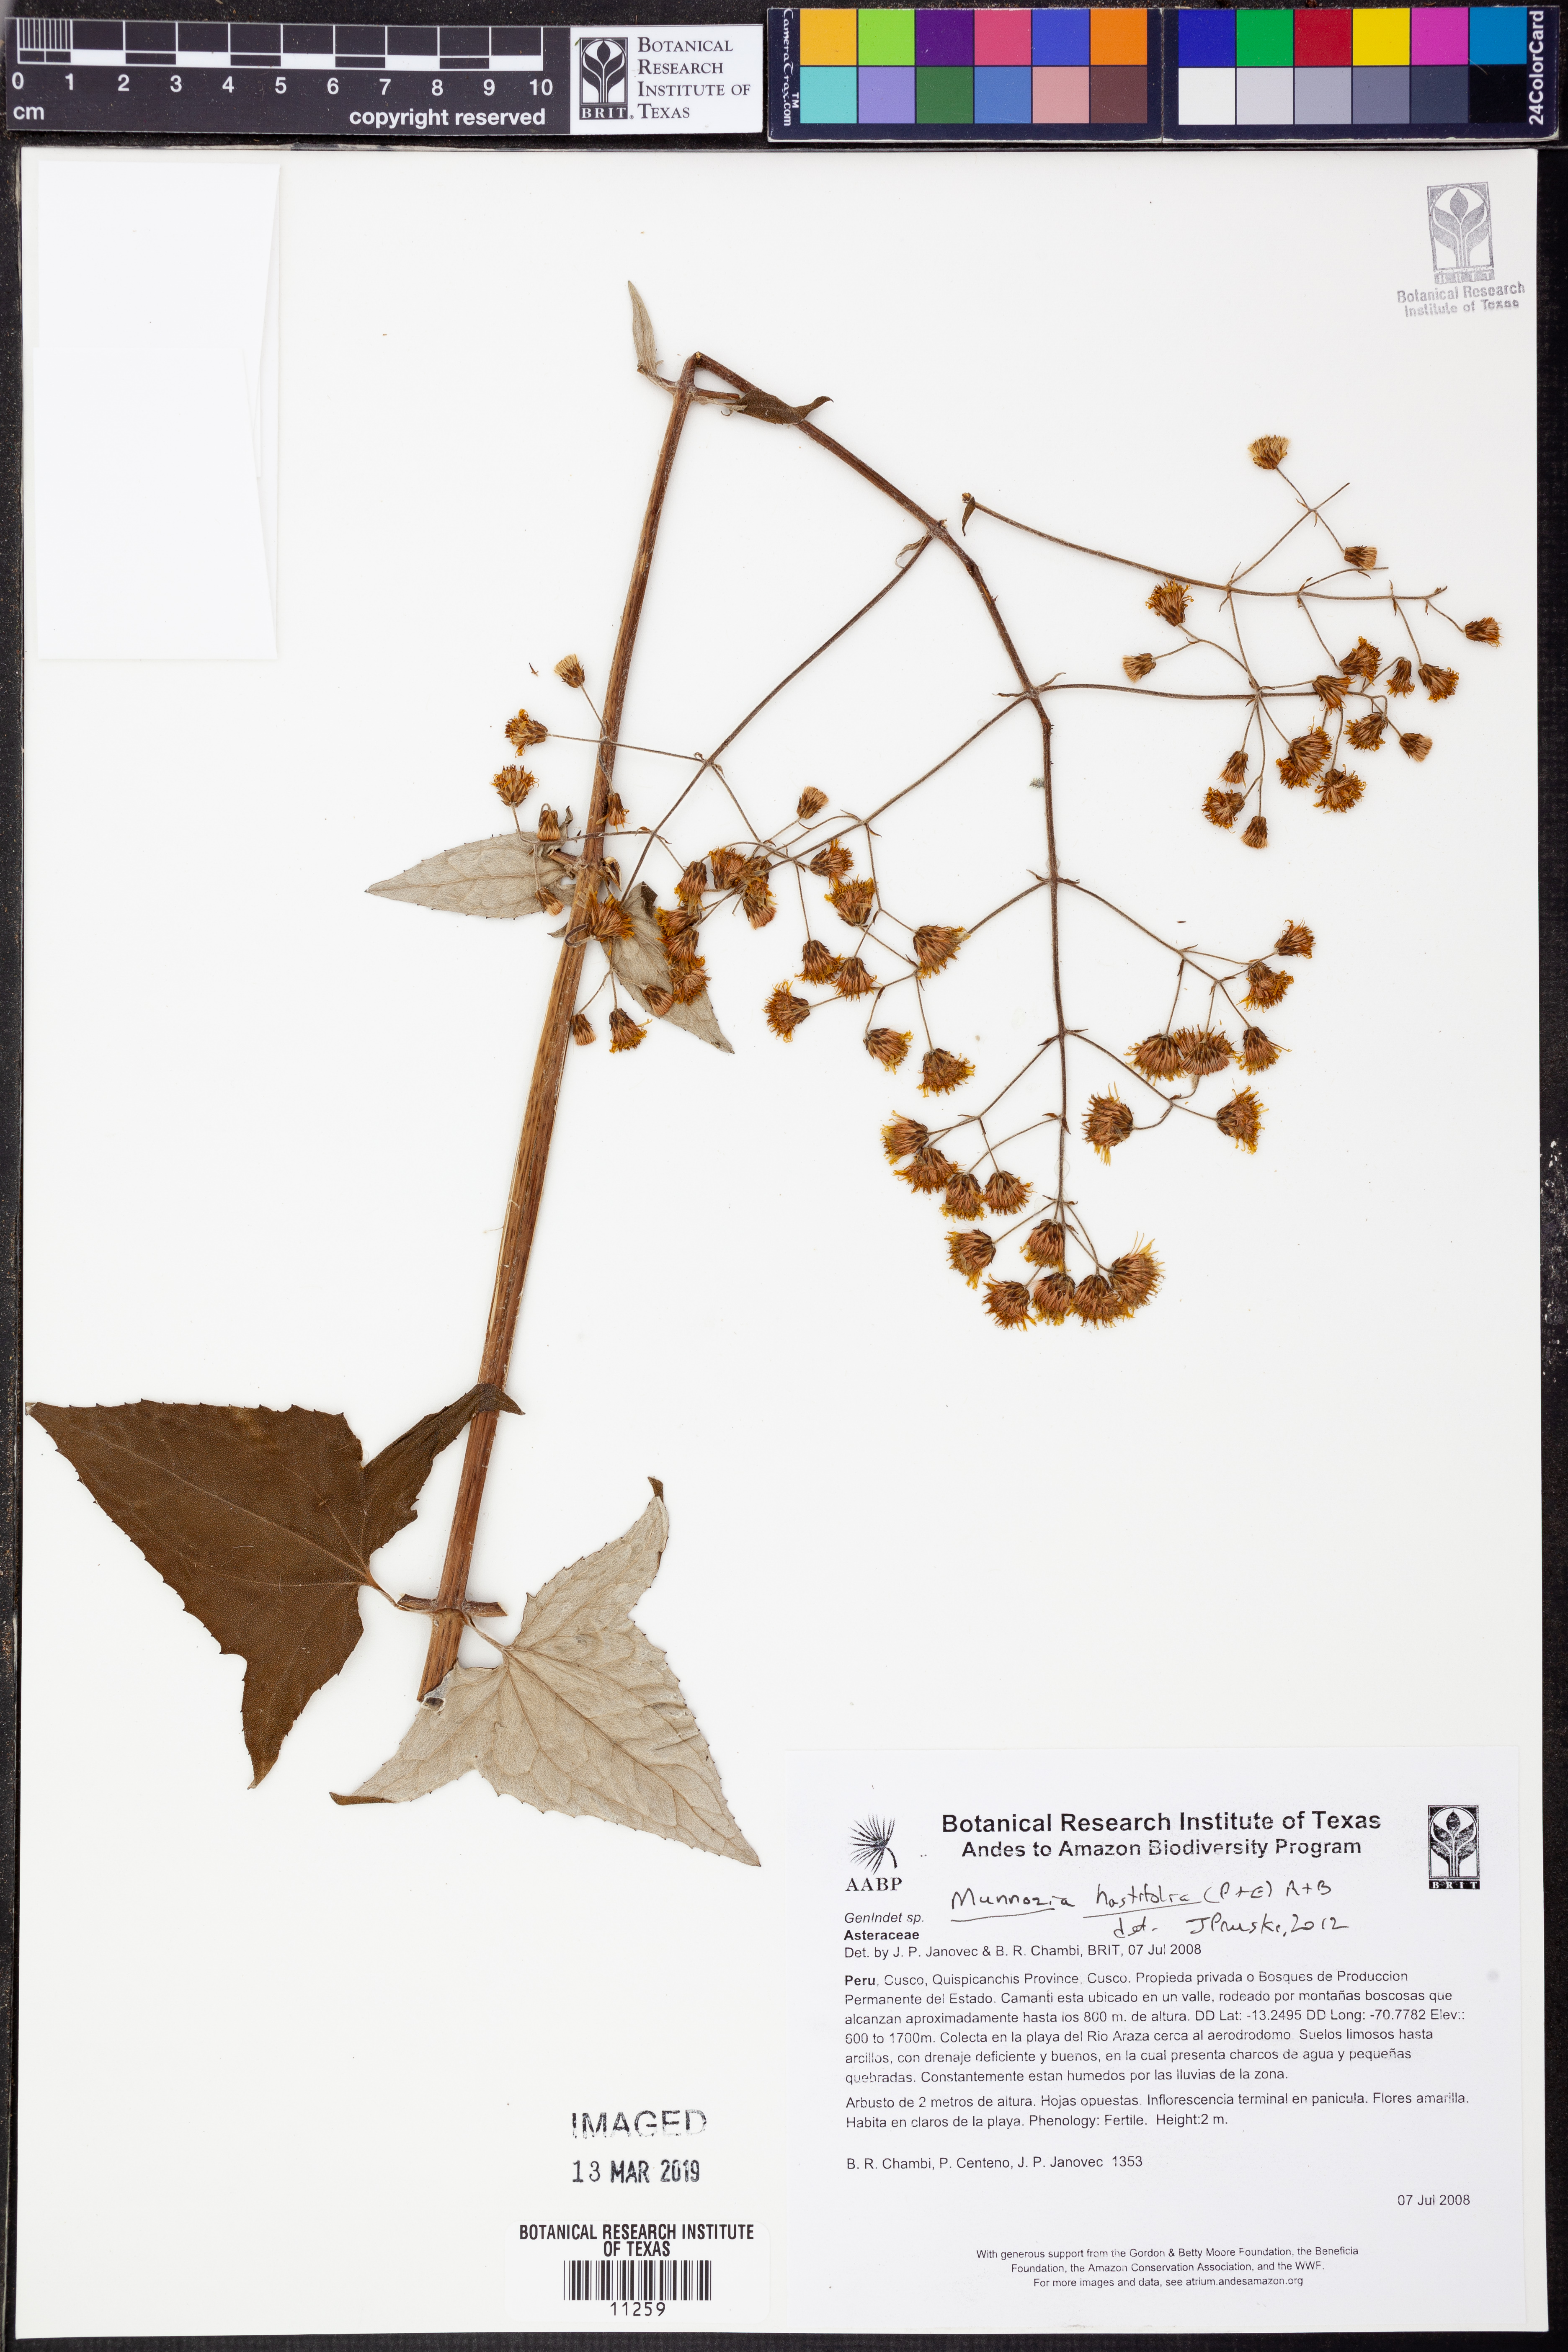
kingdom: Plantae
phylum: Tracheophyta
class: Magnoliopsida
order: Asterales
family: Asteraceae
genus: Munnozia
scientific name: Munnozia hastifolia
